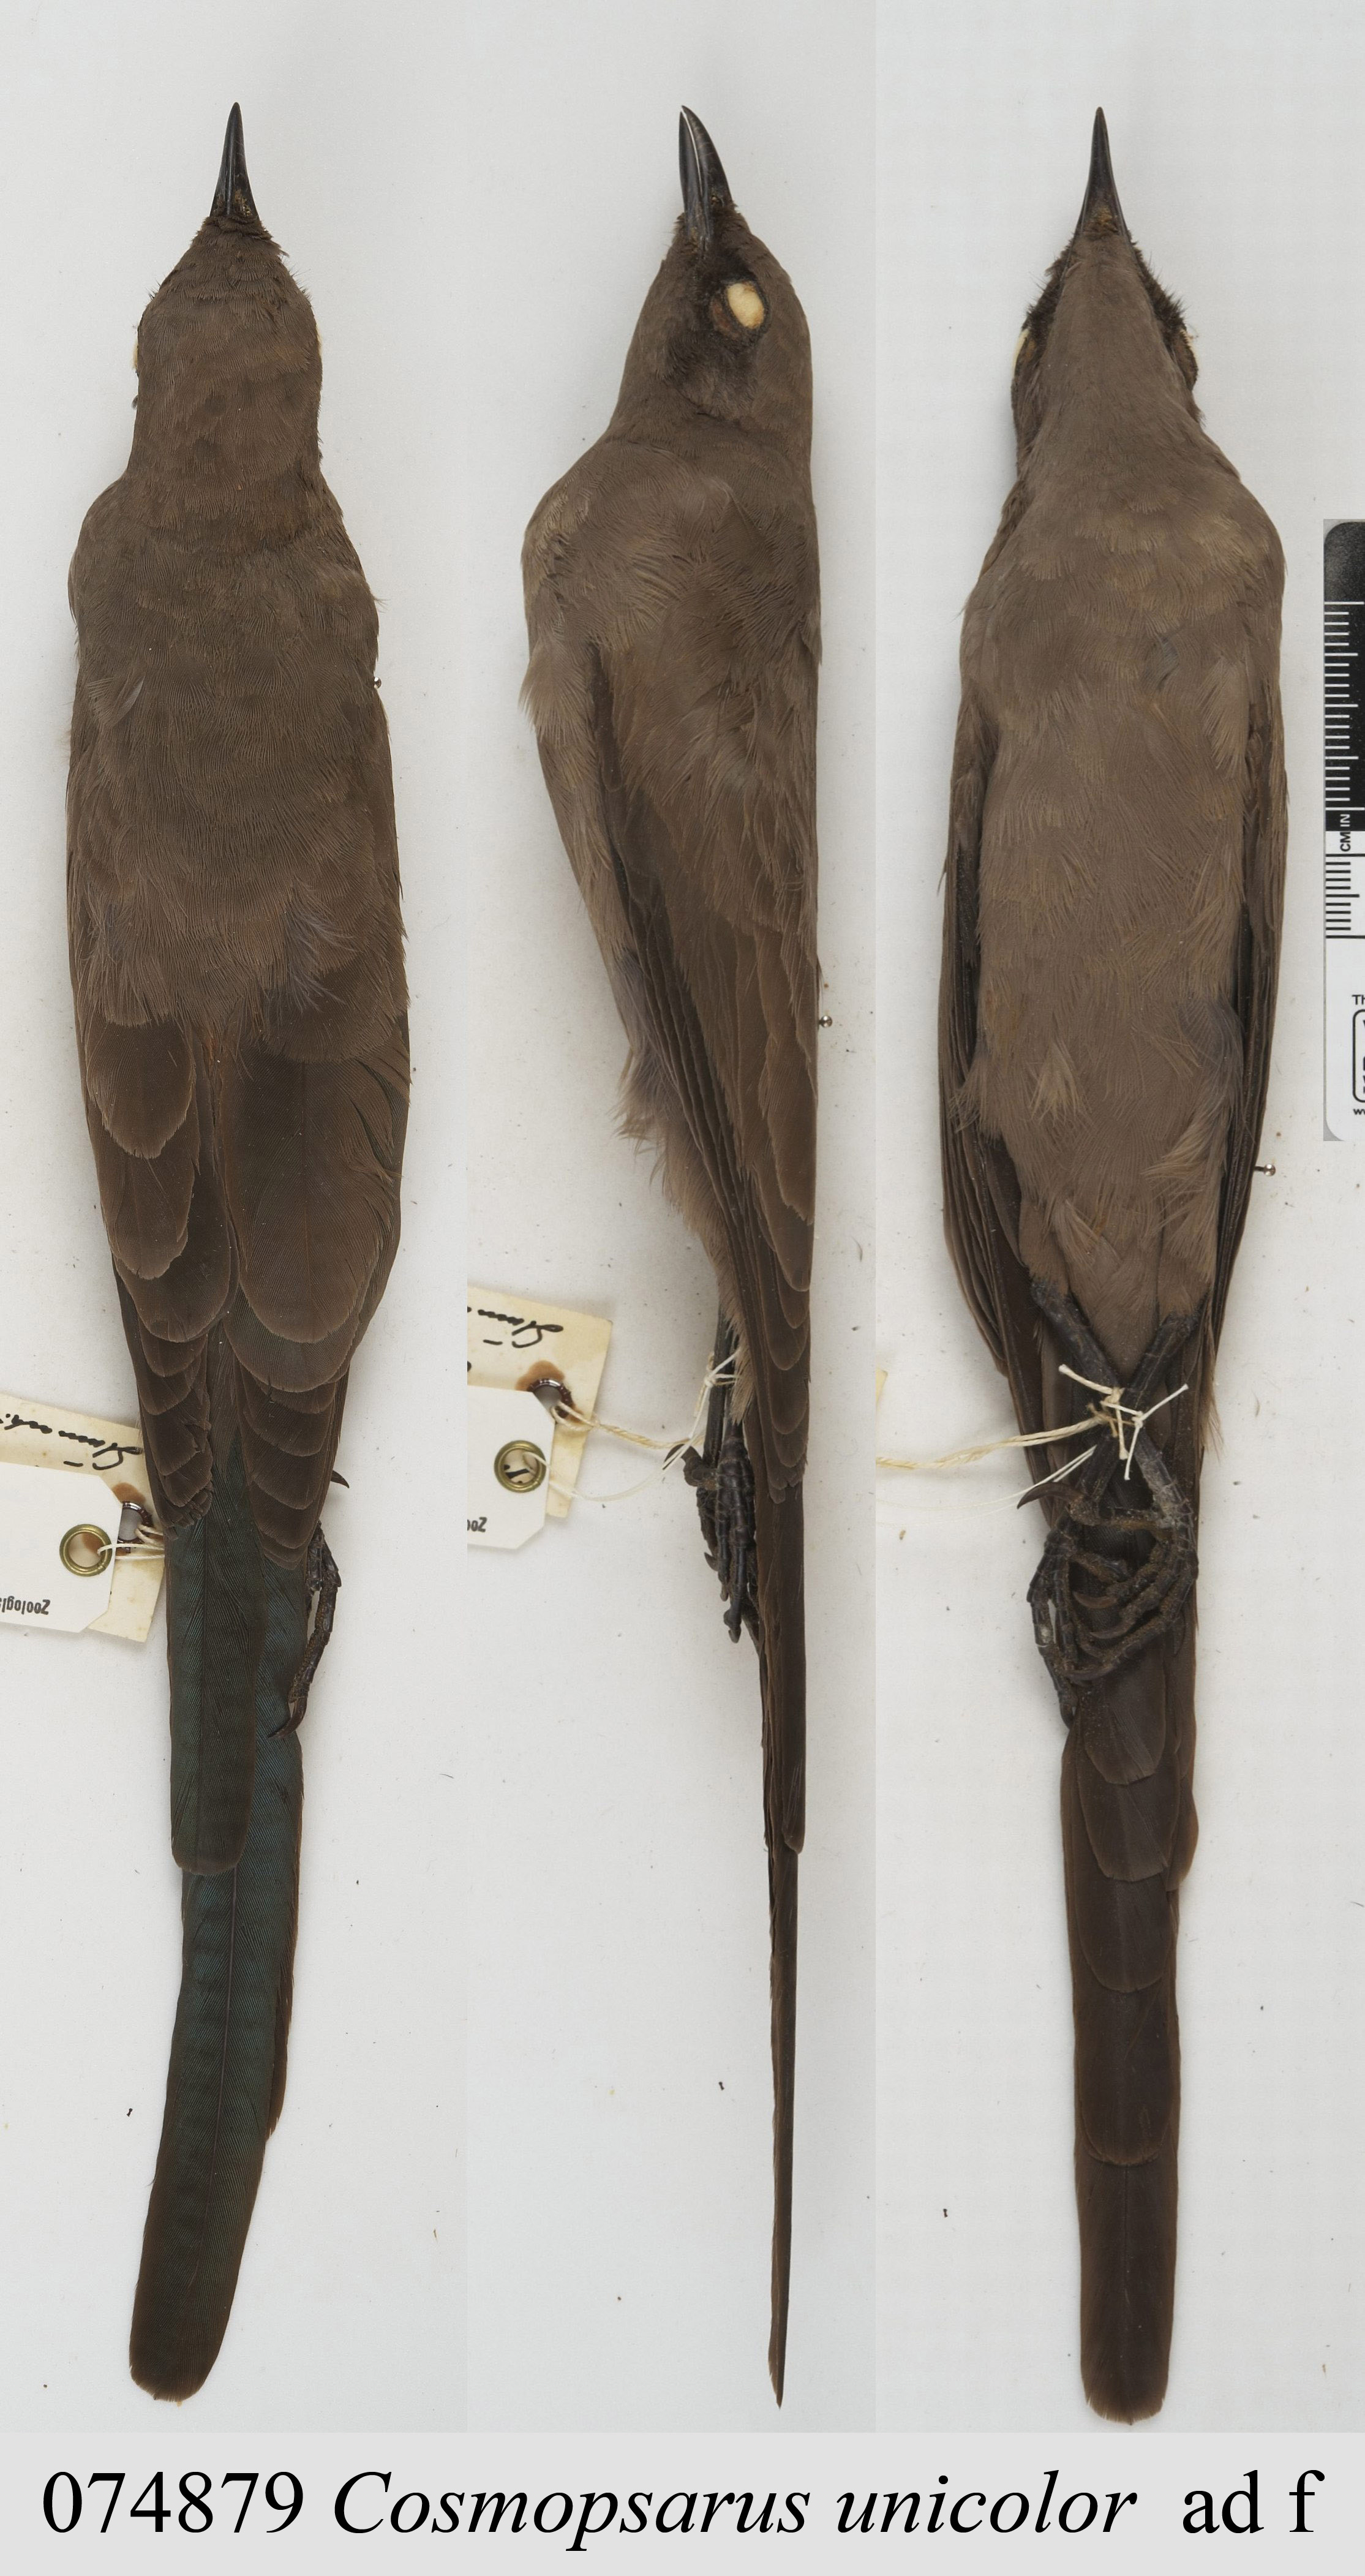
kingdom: Animalia
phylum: Chordata
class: Aves
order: Passeriformes
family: Sturnidae
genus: Lamprotornis
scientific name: Lamprotornis unicolor
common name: Ashy starling
